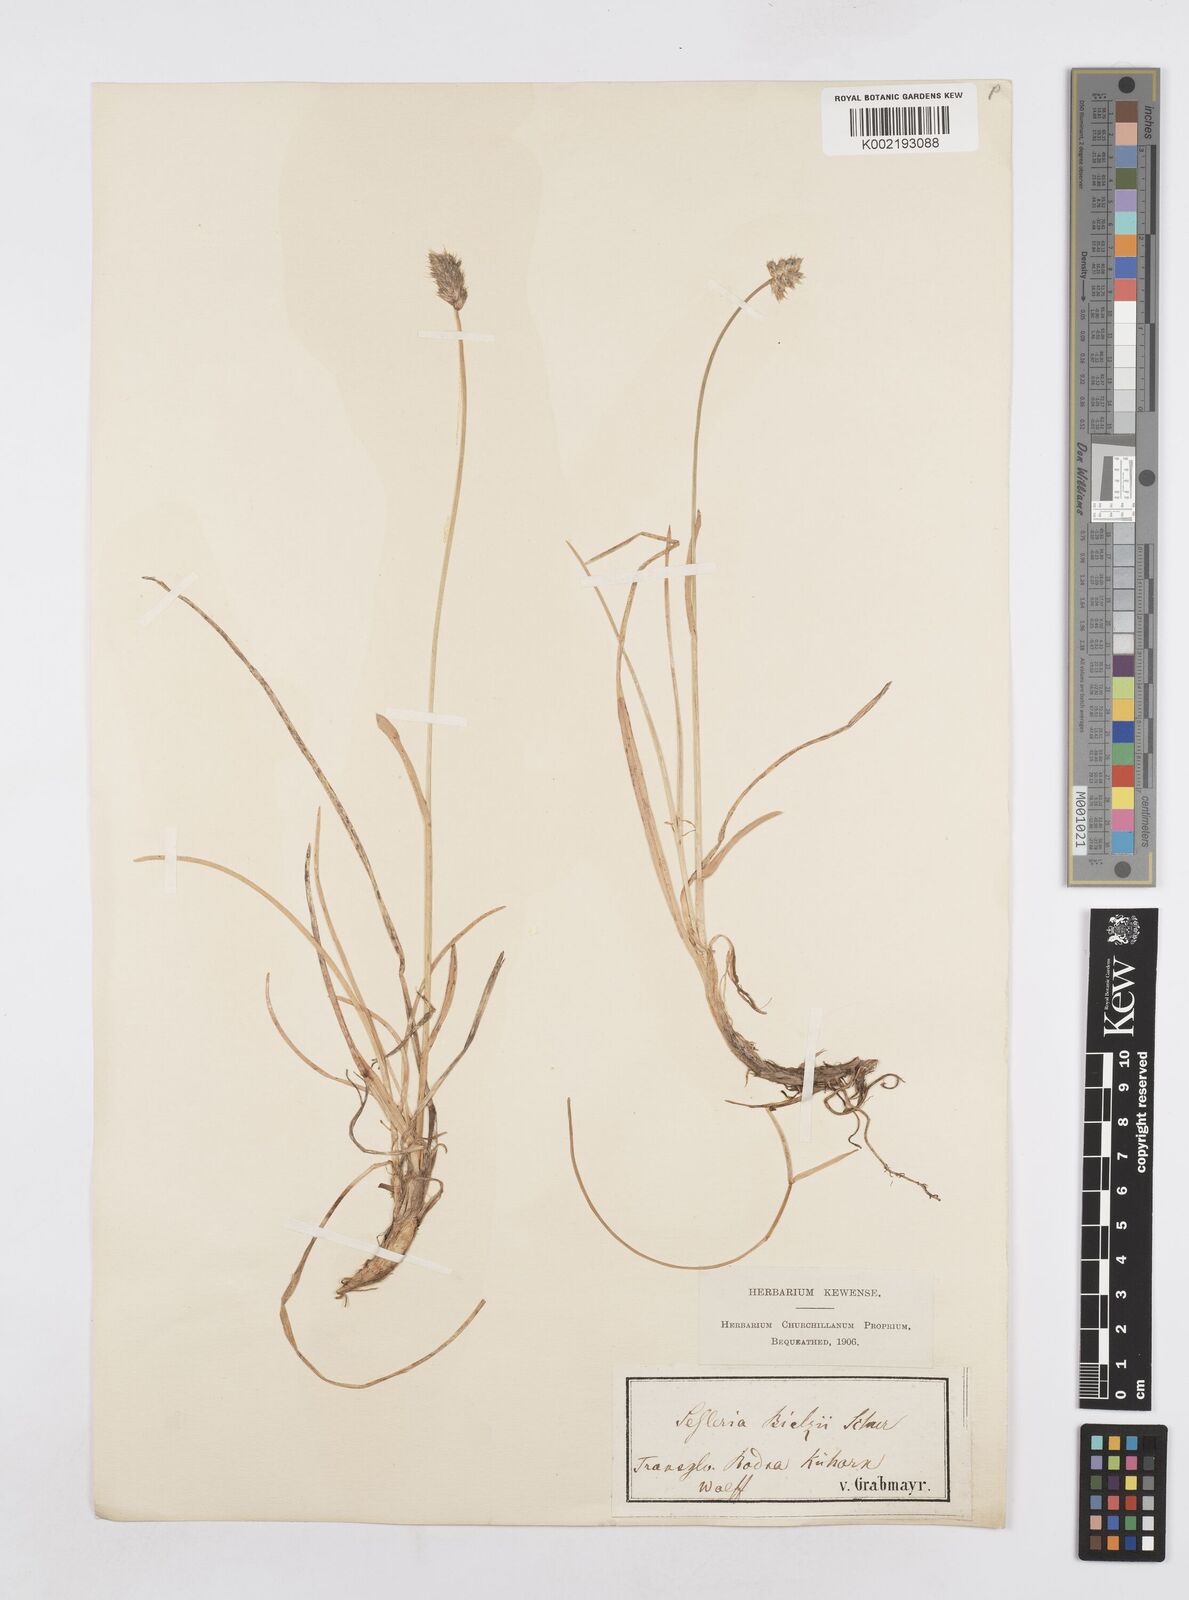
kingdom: Plantae
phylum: Tracheophyta
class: Liliopsida
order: Poales
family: Poaceae
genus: Sesleria
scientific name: Sesleria
